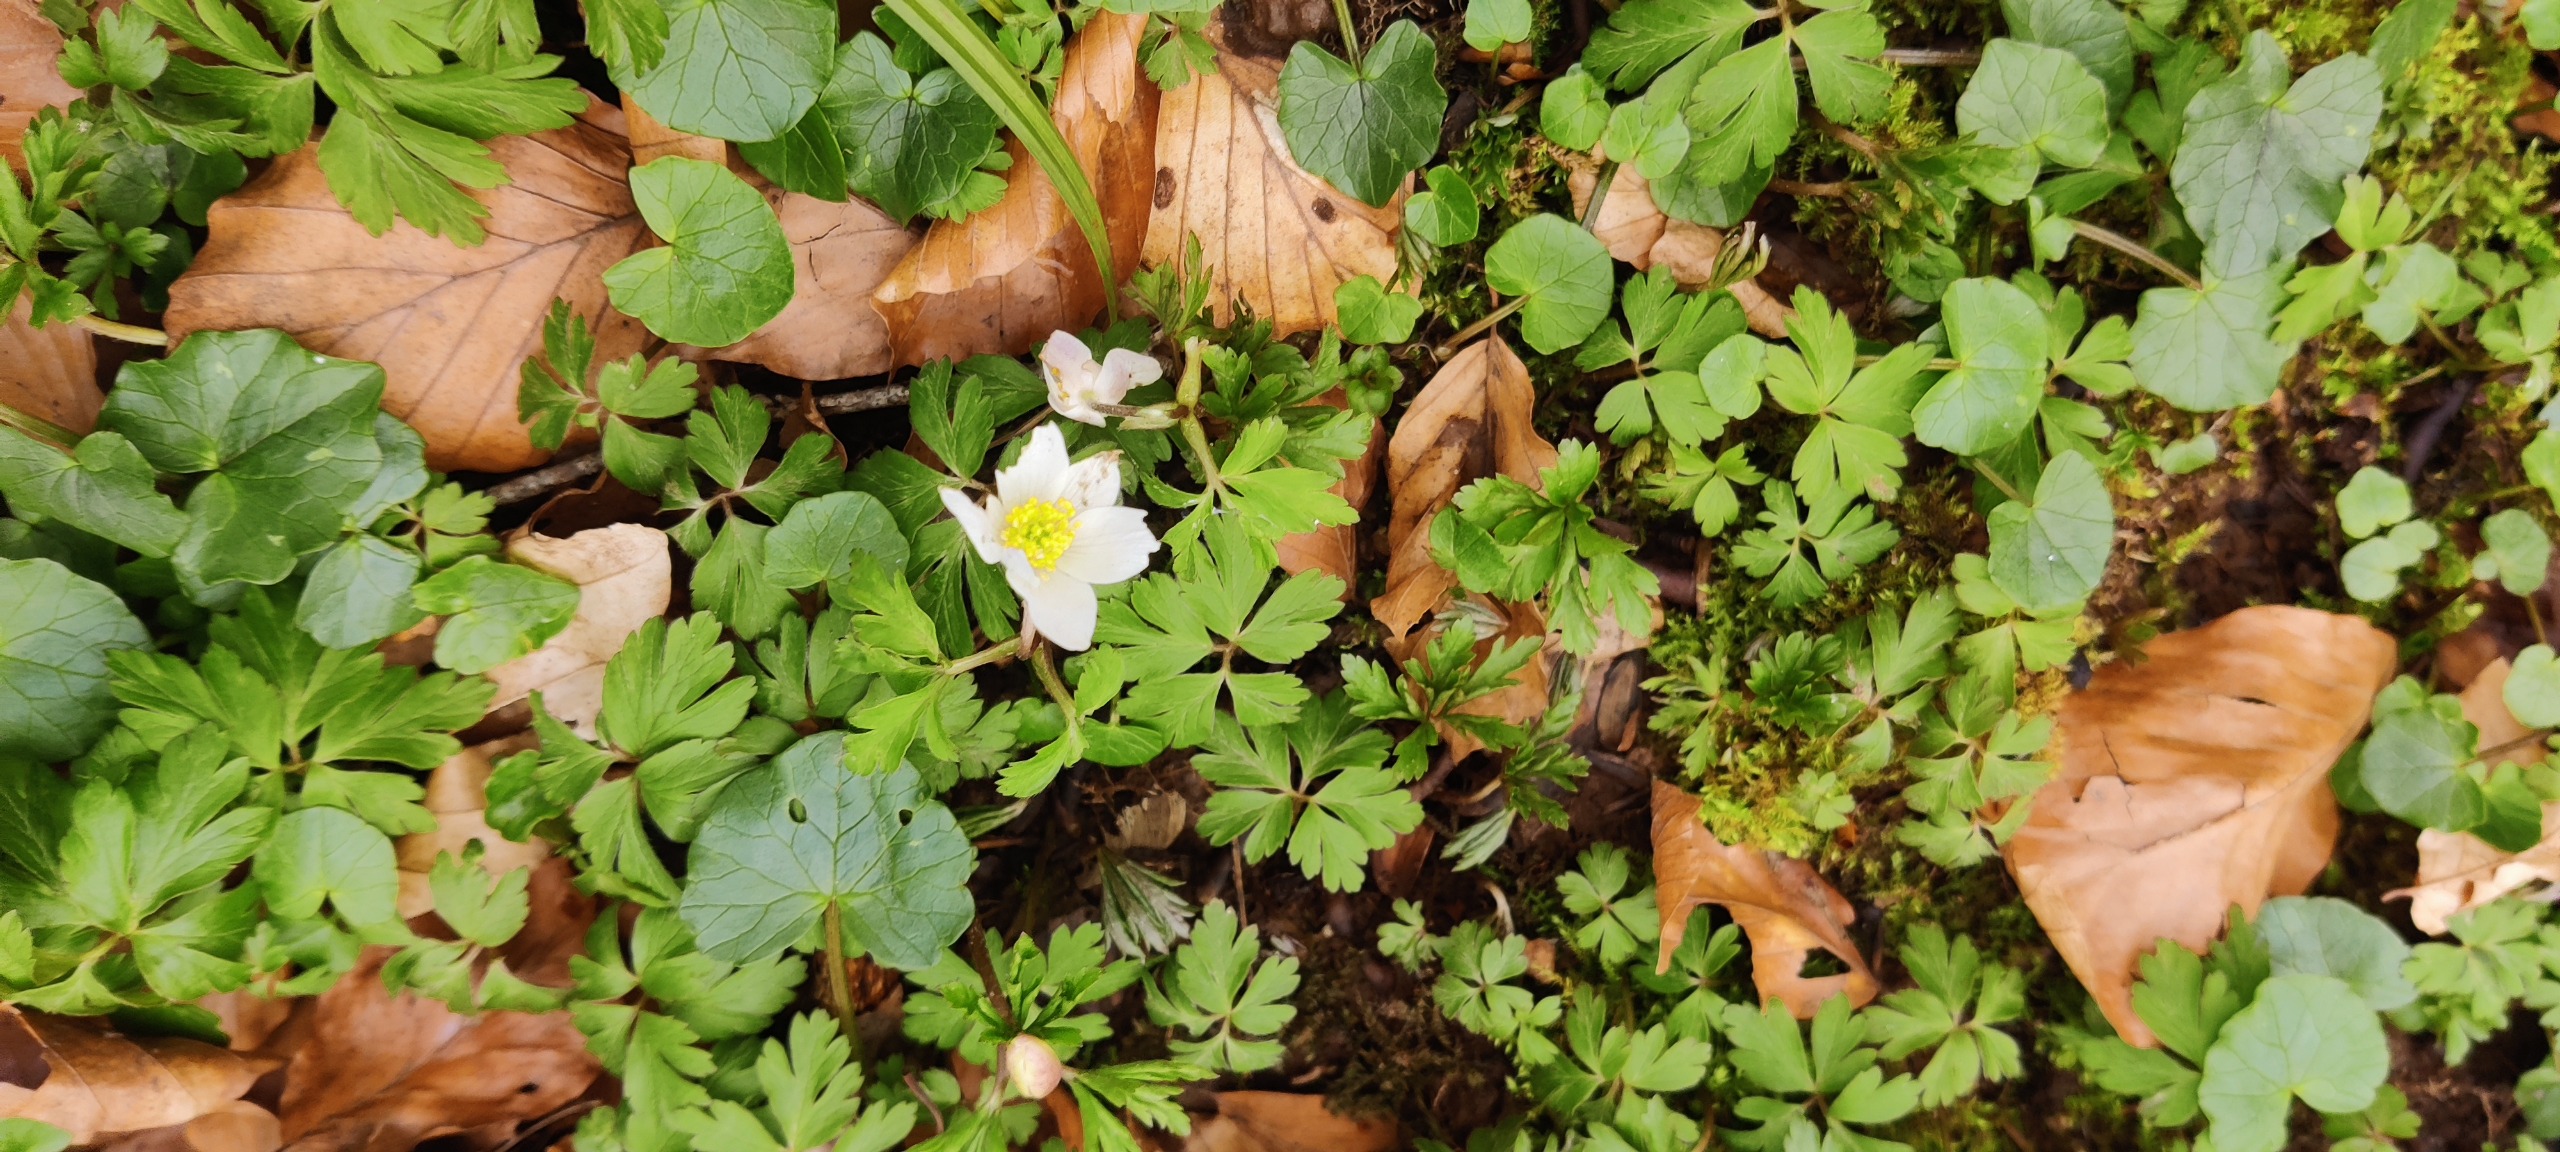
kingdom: Plantae
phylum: Tracheophyta
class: Magnoliopsida
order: Ranunculales
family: Ranunculaceae
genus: Anemone
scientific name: Anemone nemorosa
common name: Hvid anemone
